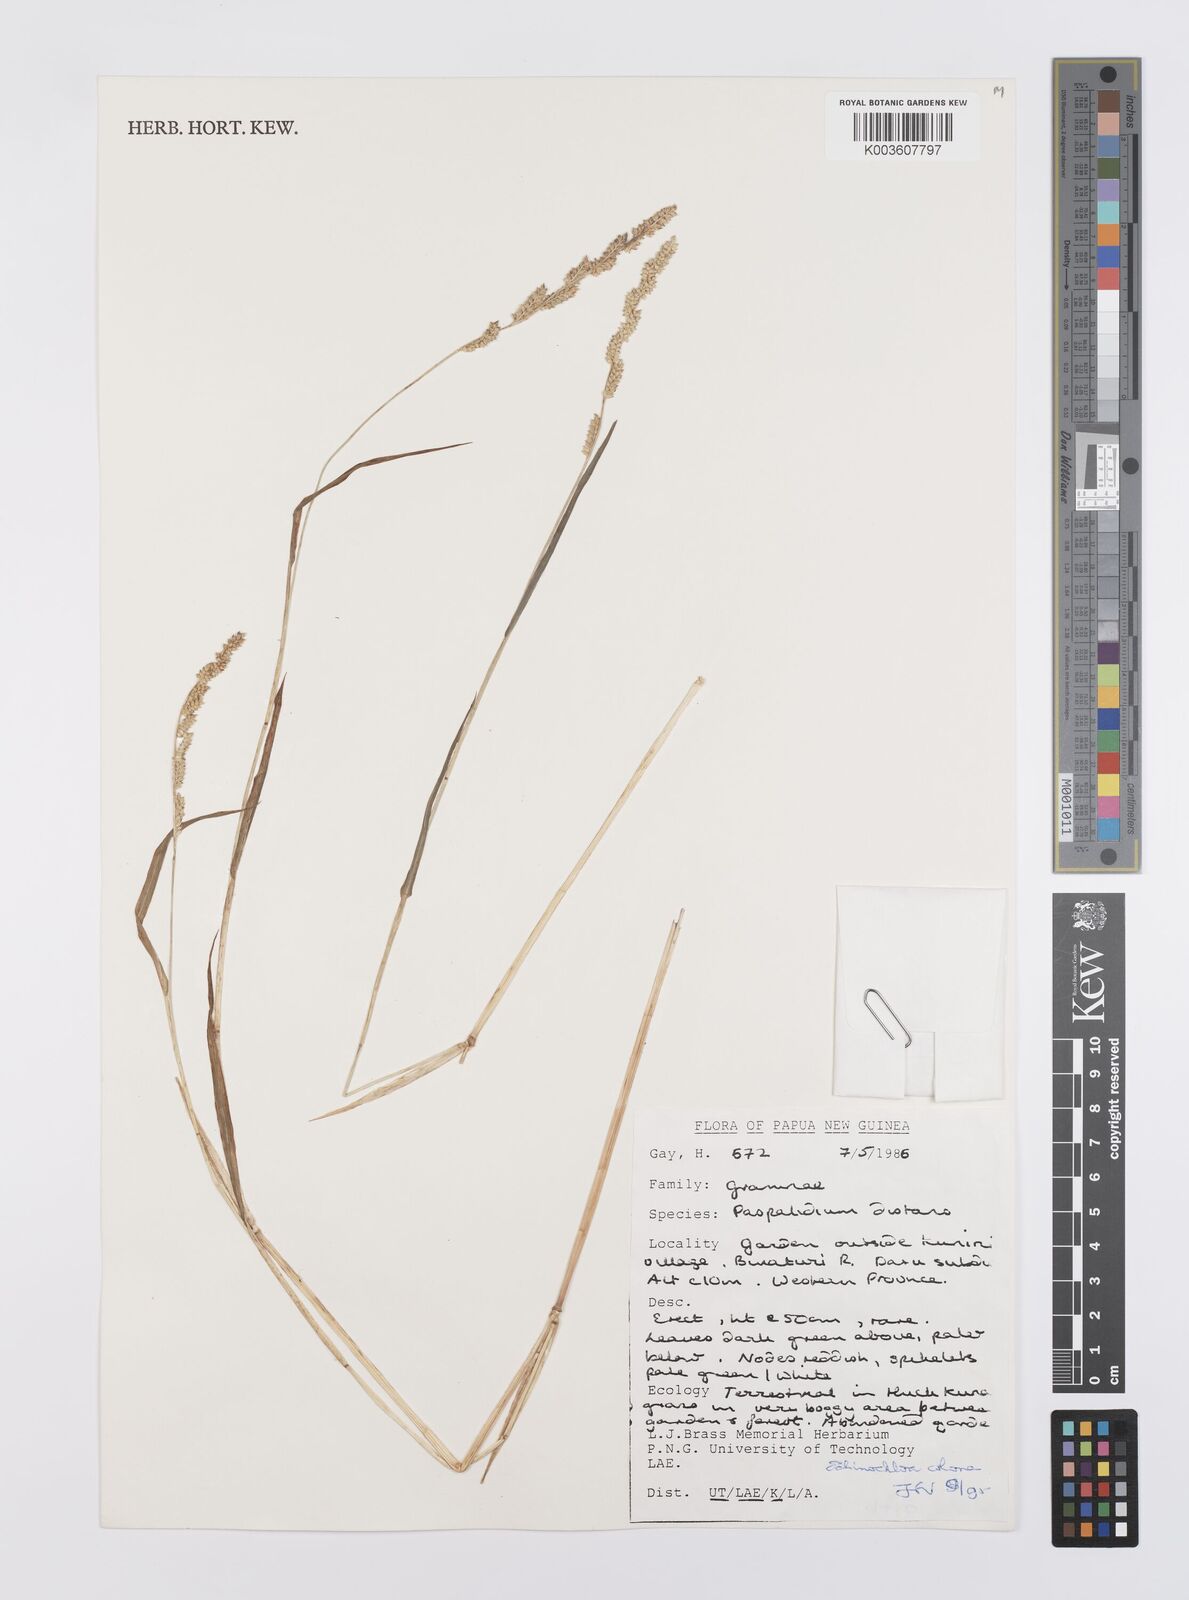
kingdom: Plantae
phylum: Tracheophyta
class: Liliopsida
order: Poales
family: Poaceae
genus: Echinochloa
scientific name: Echinochloa colonum
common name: Jungle rice
